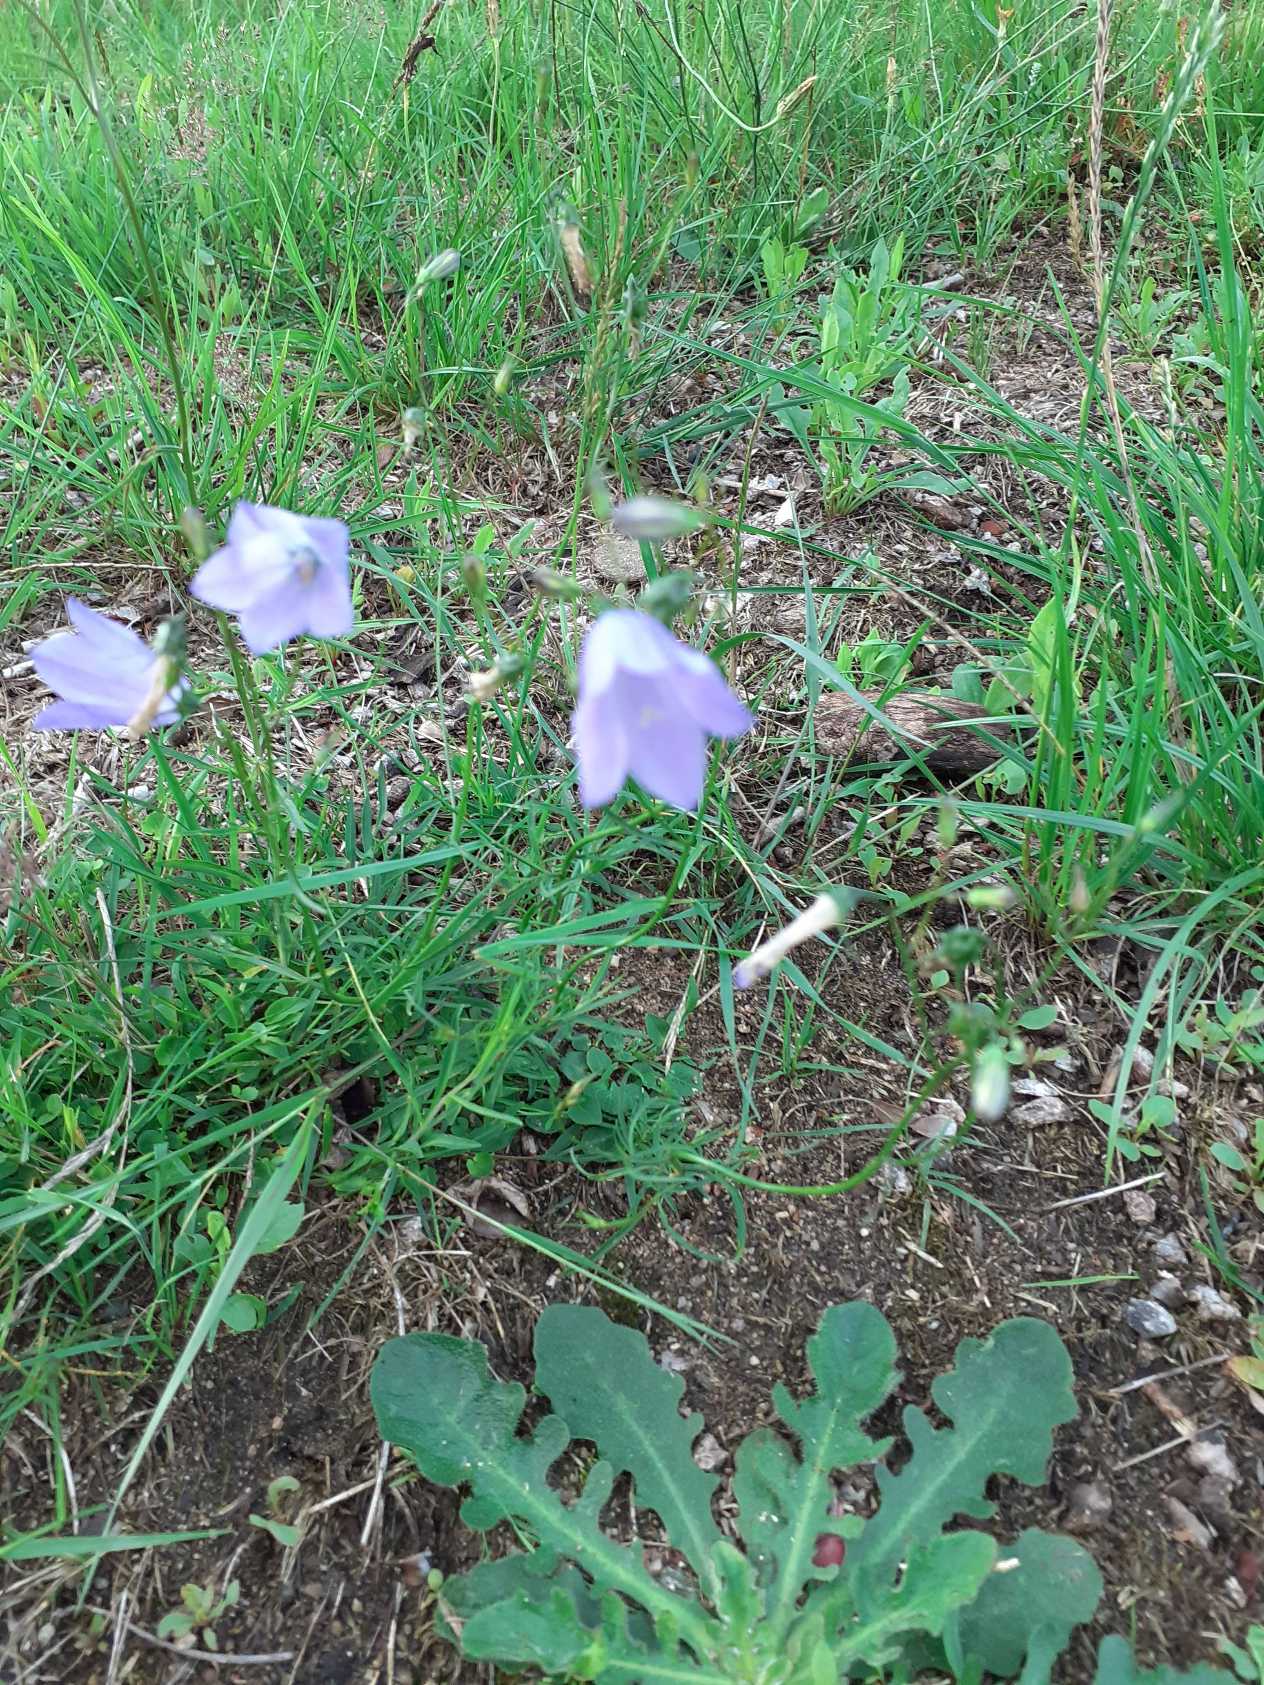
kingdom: Plantae
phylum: Tracheophyta
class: Magnoliopsida
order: Asterales
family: Campanulaceae
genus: Campanula
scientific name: Campanula rotundifolia
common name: Liden klokke
